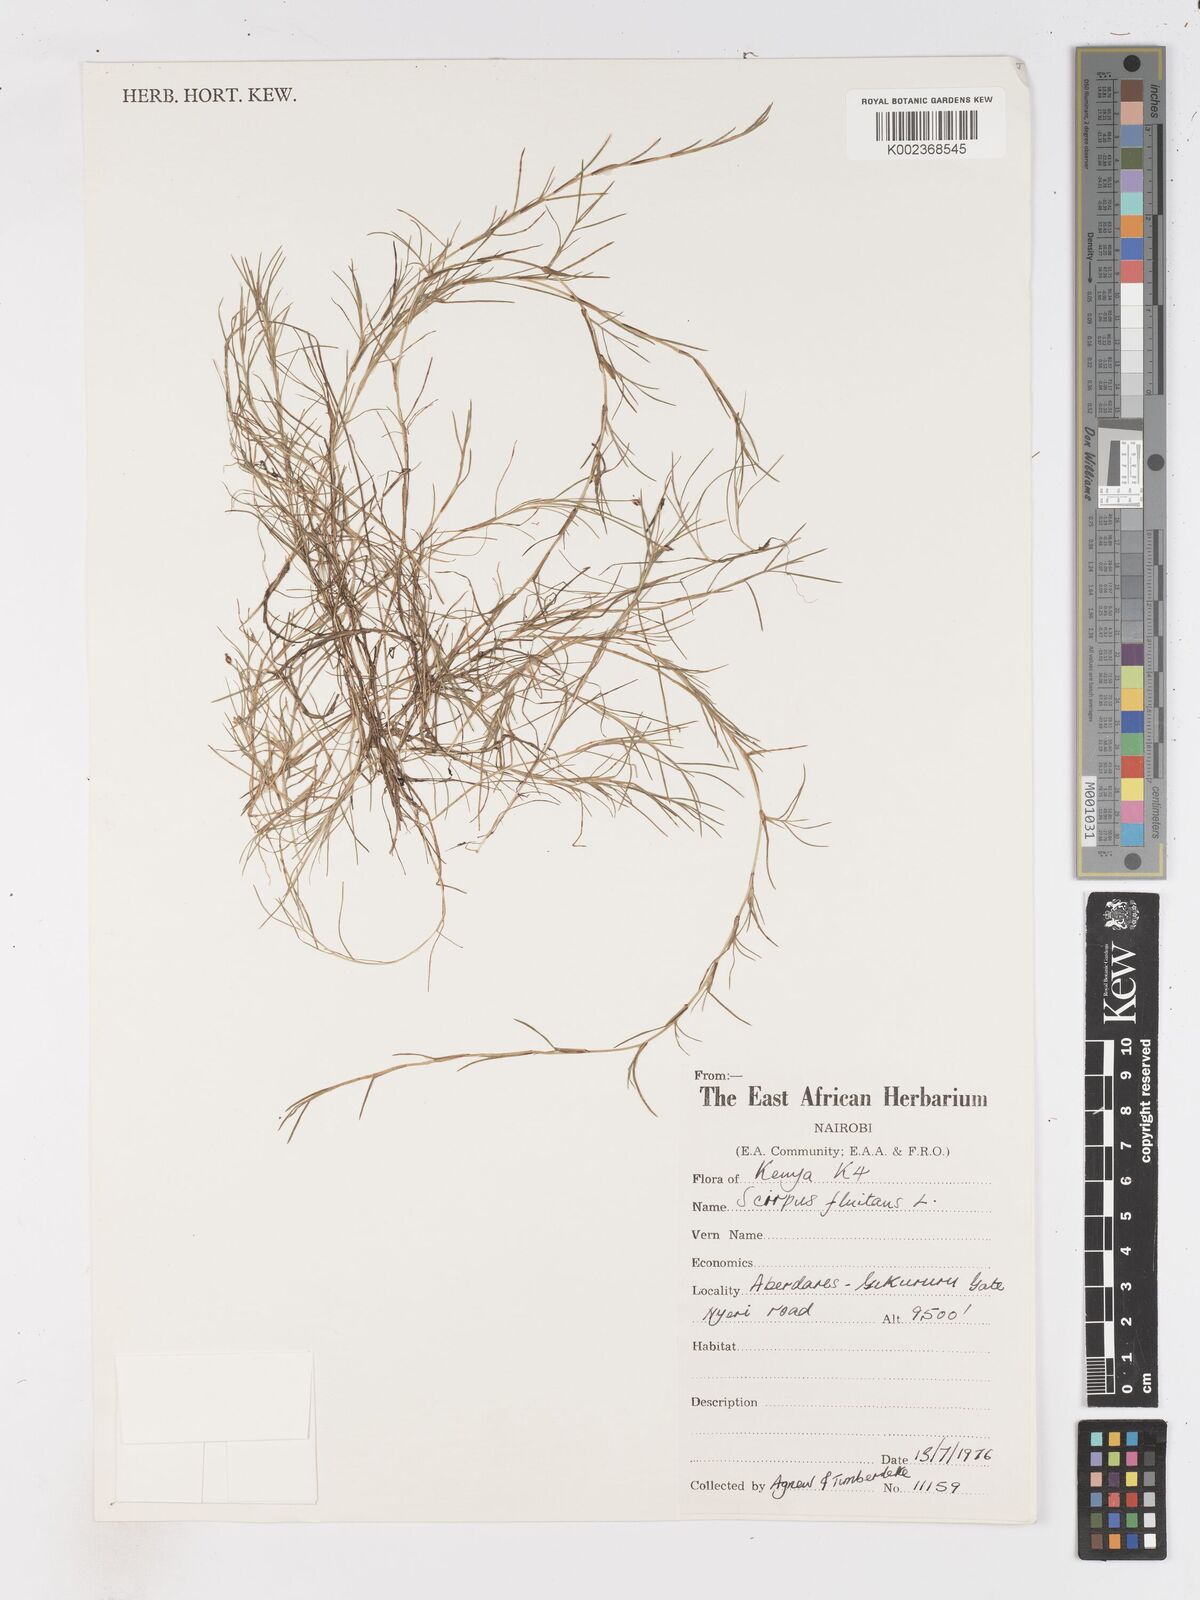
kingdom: Plantae
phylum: Tracheophyta
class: Liliopsida
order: Poales
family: Cyperaceae
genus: Isolepis
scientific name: Isolepis fluitans
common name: Floating club-rush
